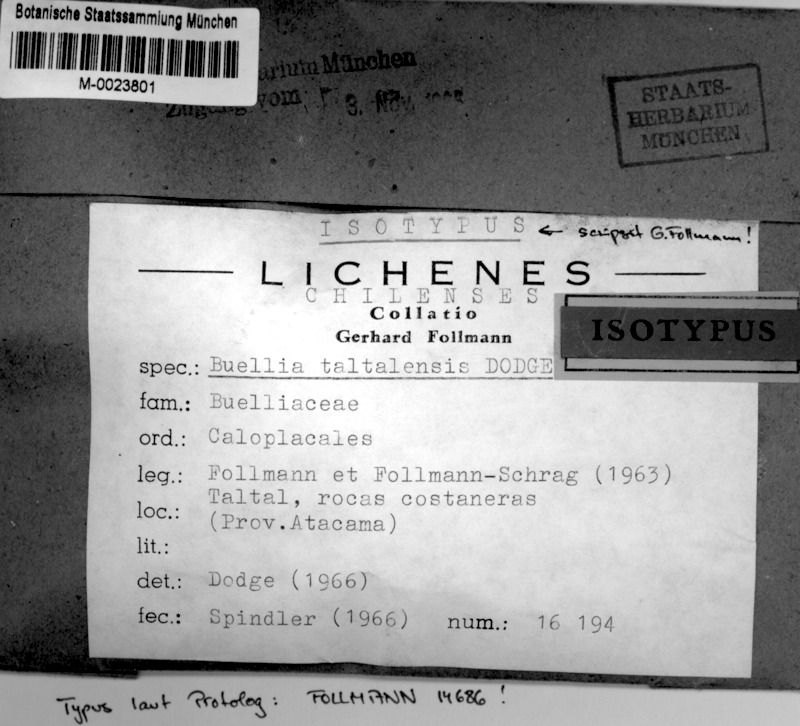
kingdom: Fungi
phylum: Ascomycota
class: Lecanoromycetes
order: Caliciales
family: Caliciaceae
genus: Buellia
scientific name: Buellia taltalensis
